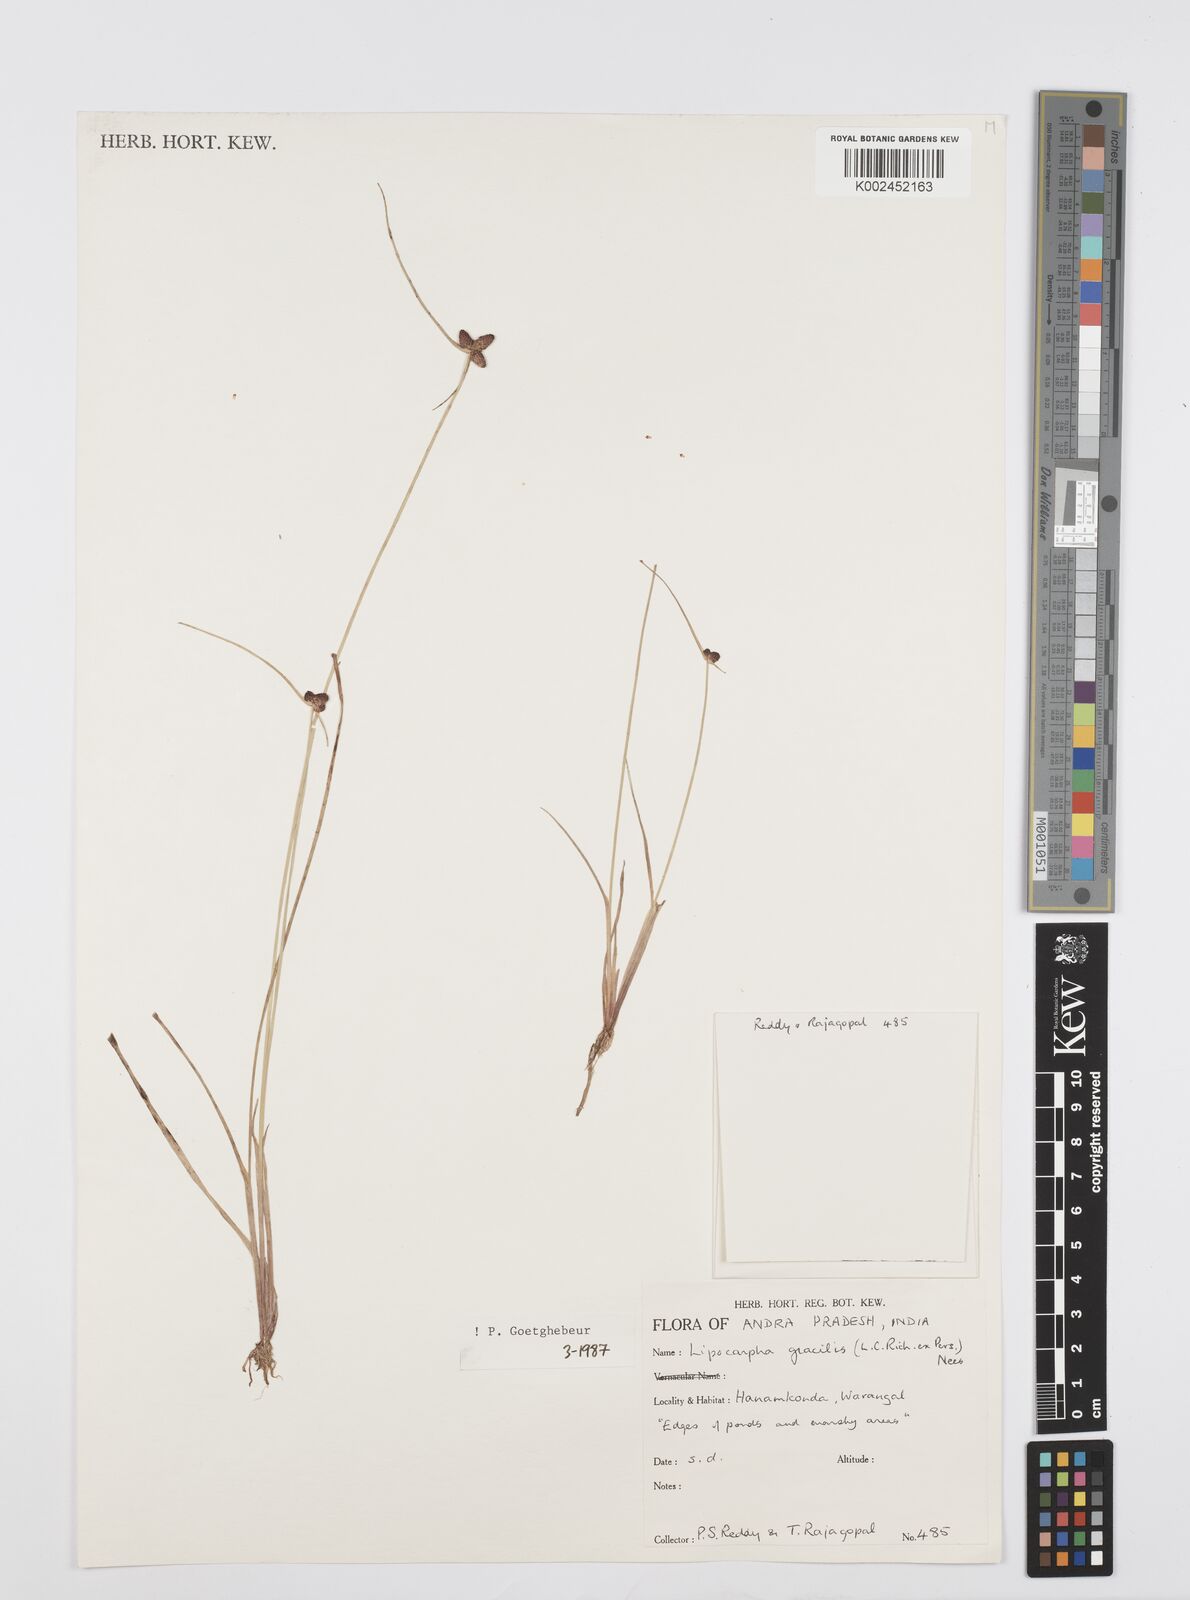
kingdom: Plantae
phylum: Tracheophyta
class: Liliopsida
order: Poales
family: Cyperaceae
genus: Cyperus
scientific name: Cyperus sphacelatus
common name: Roadside flatsedge
